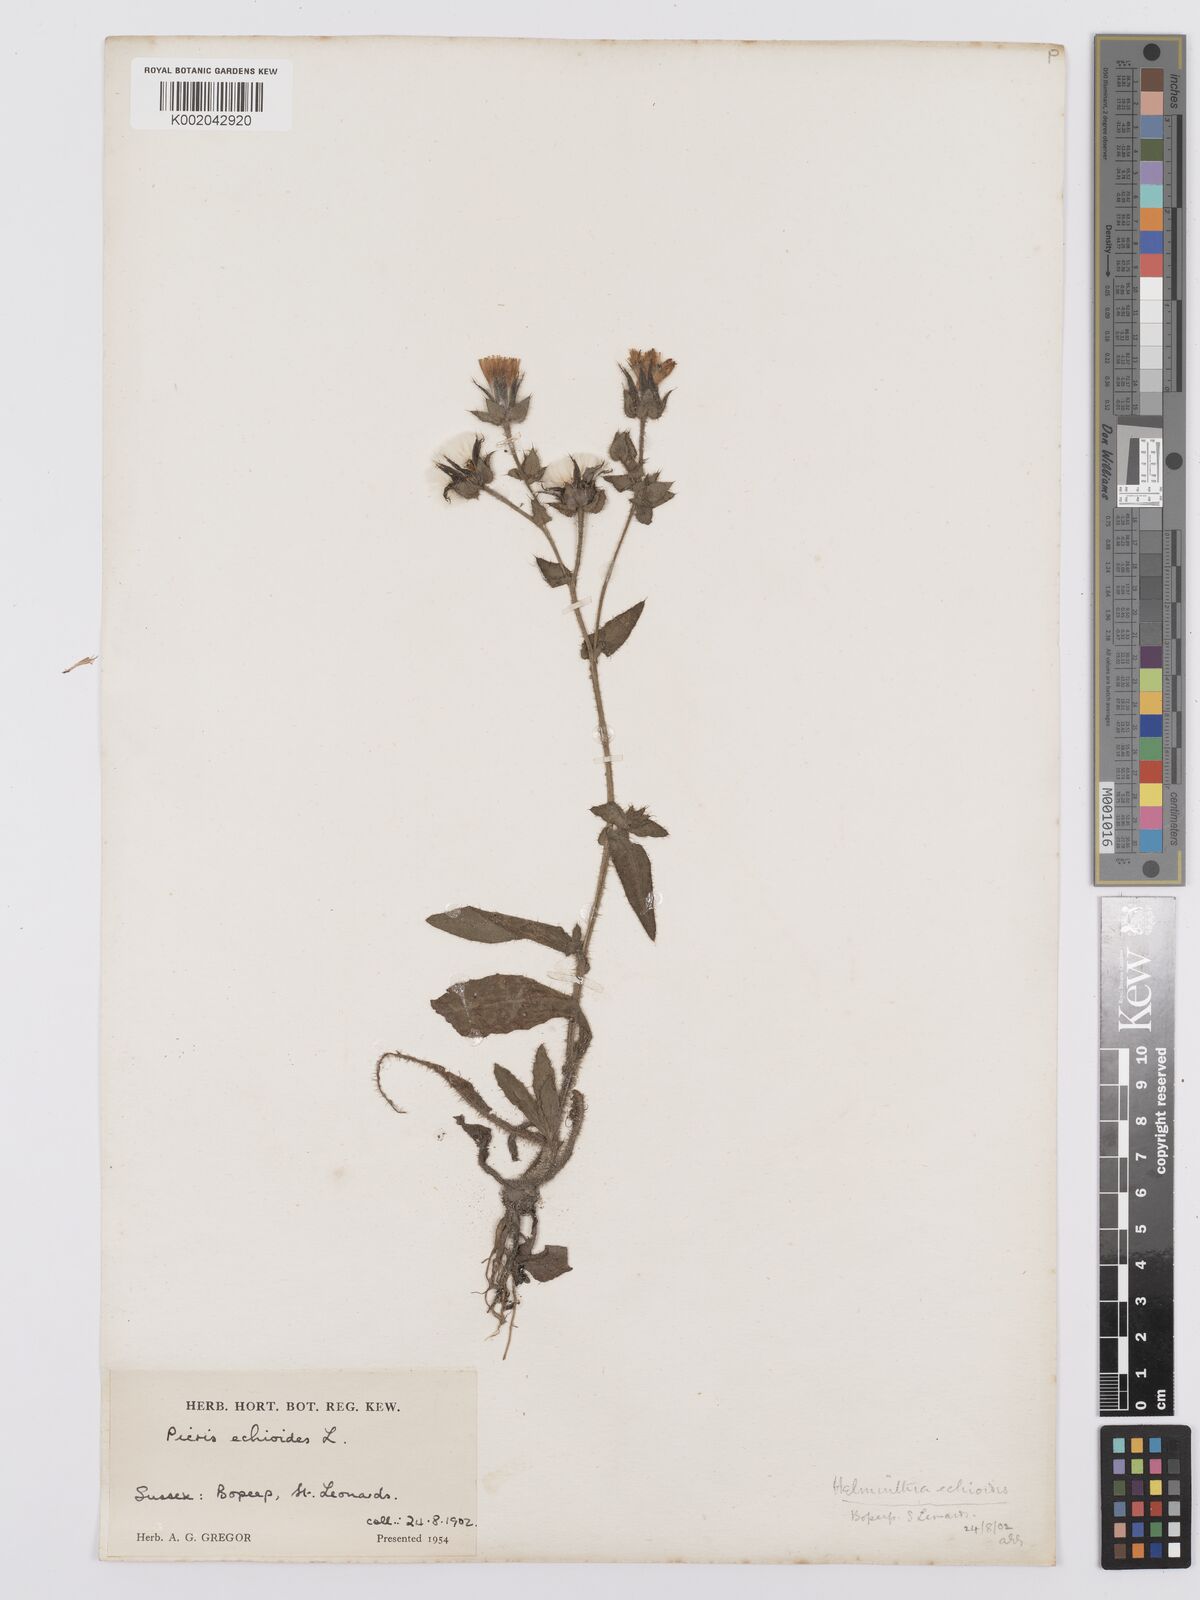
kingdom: Plantae
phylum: Tracheophyta
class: Magnoliopsida
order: Asterales
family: Asteraceae
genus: Helminthotheca
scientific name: Helminthotheca echioides
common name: Ox-tongue
